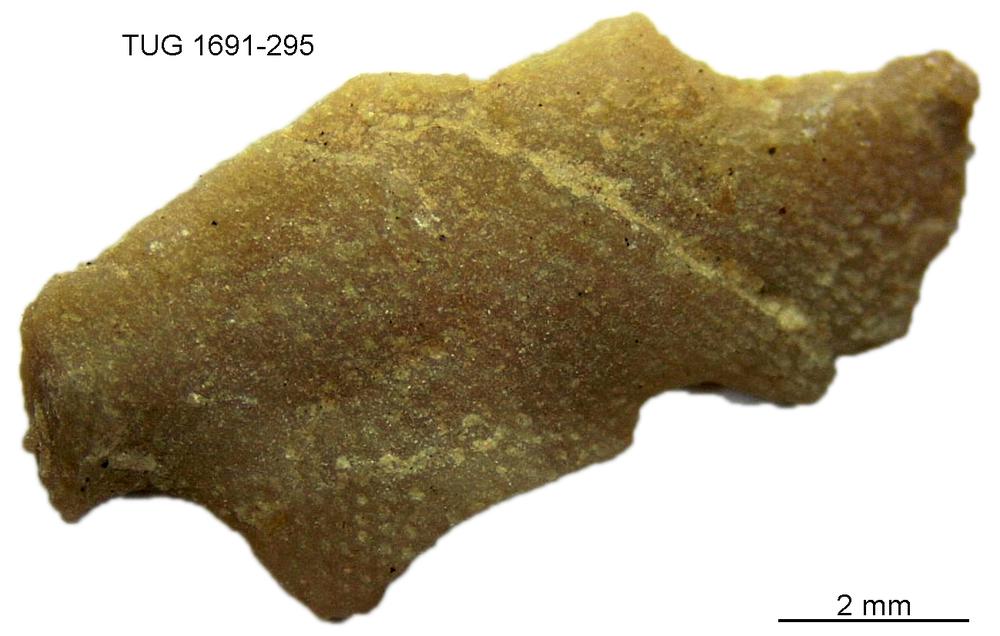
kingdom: Animalia
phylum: Bryozoa
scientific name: Bryozoa
